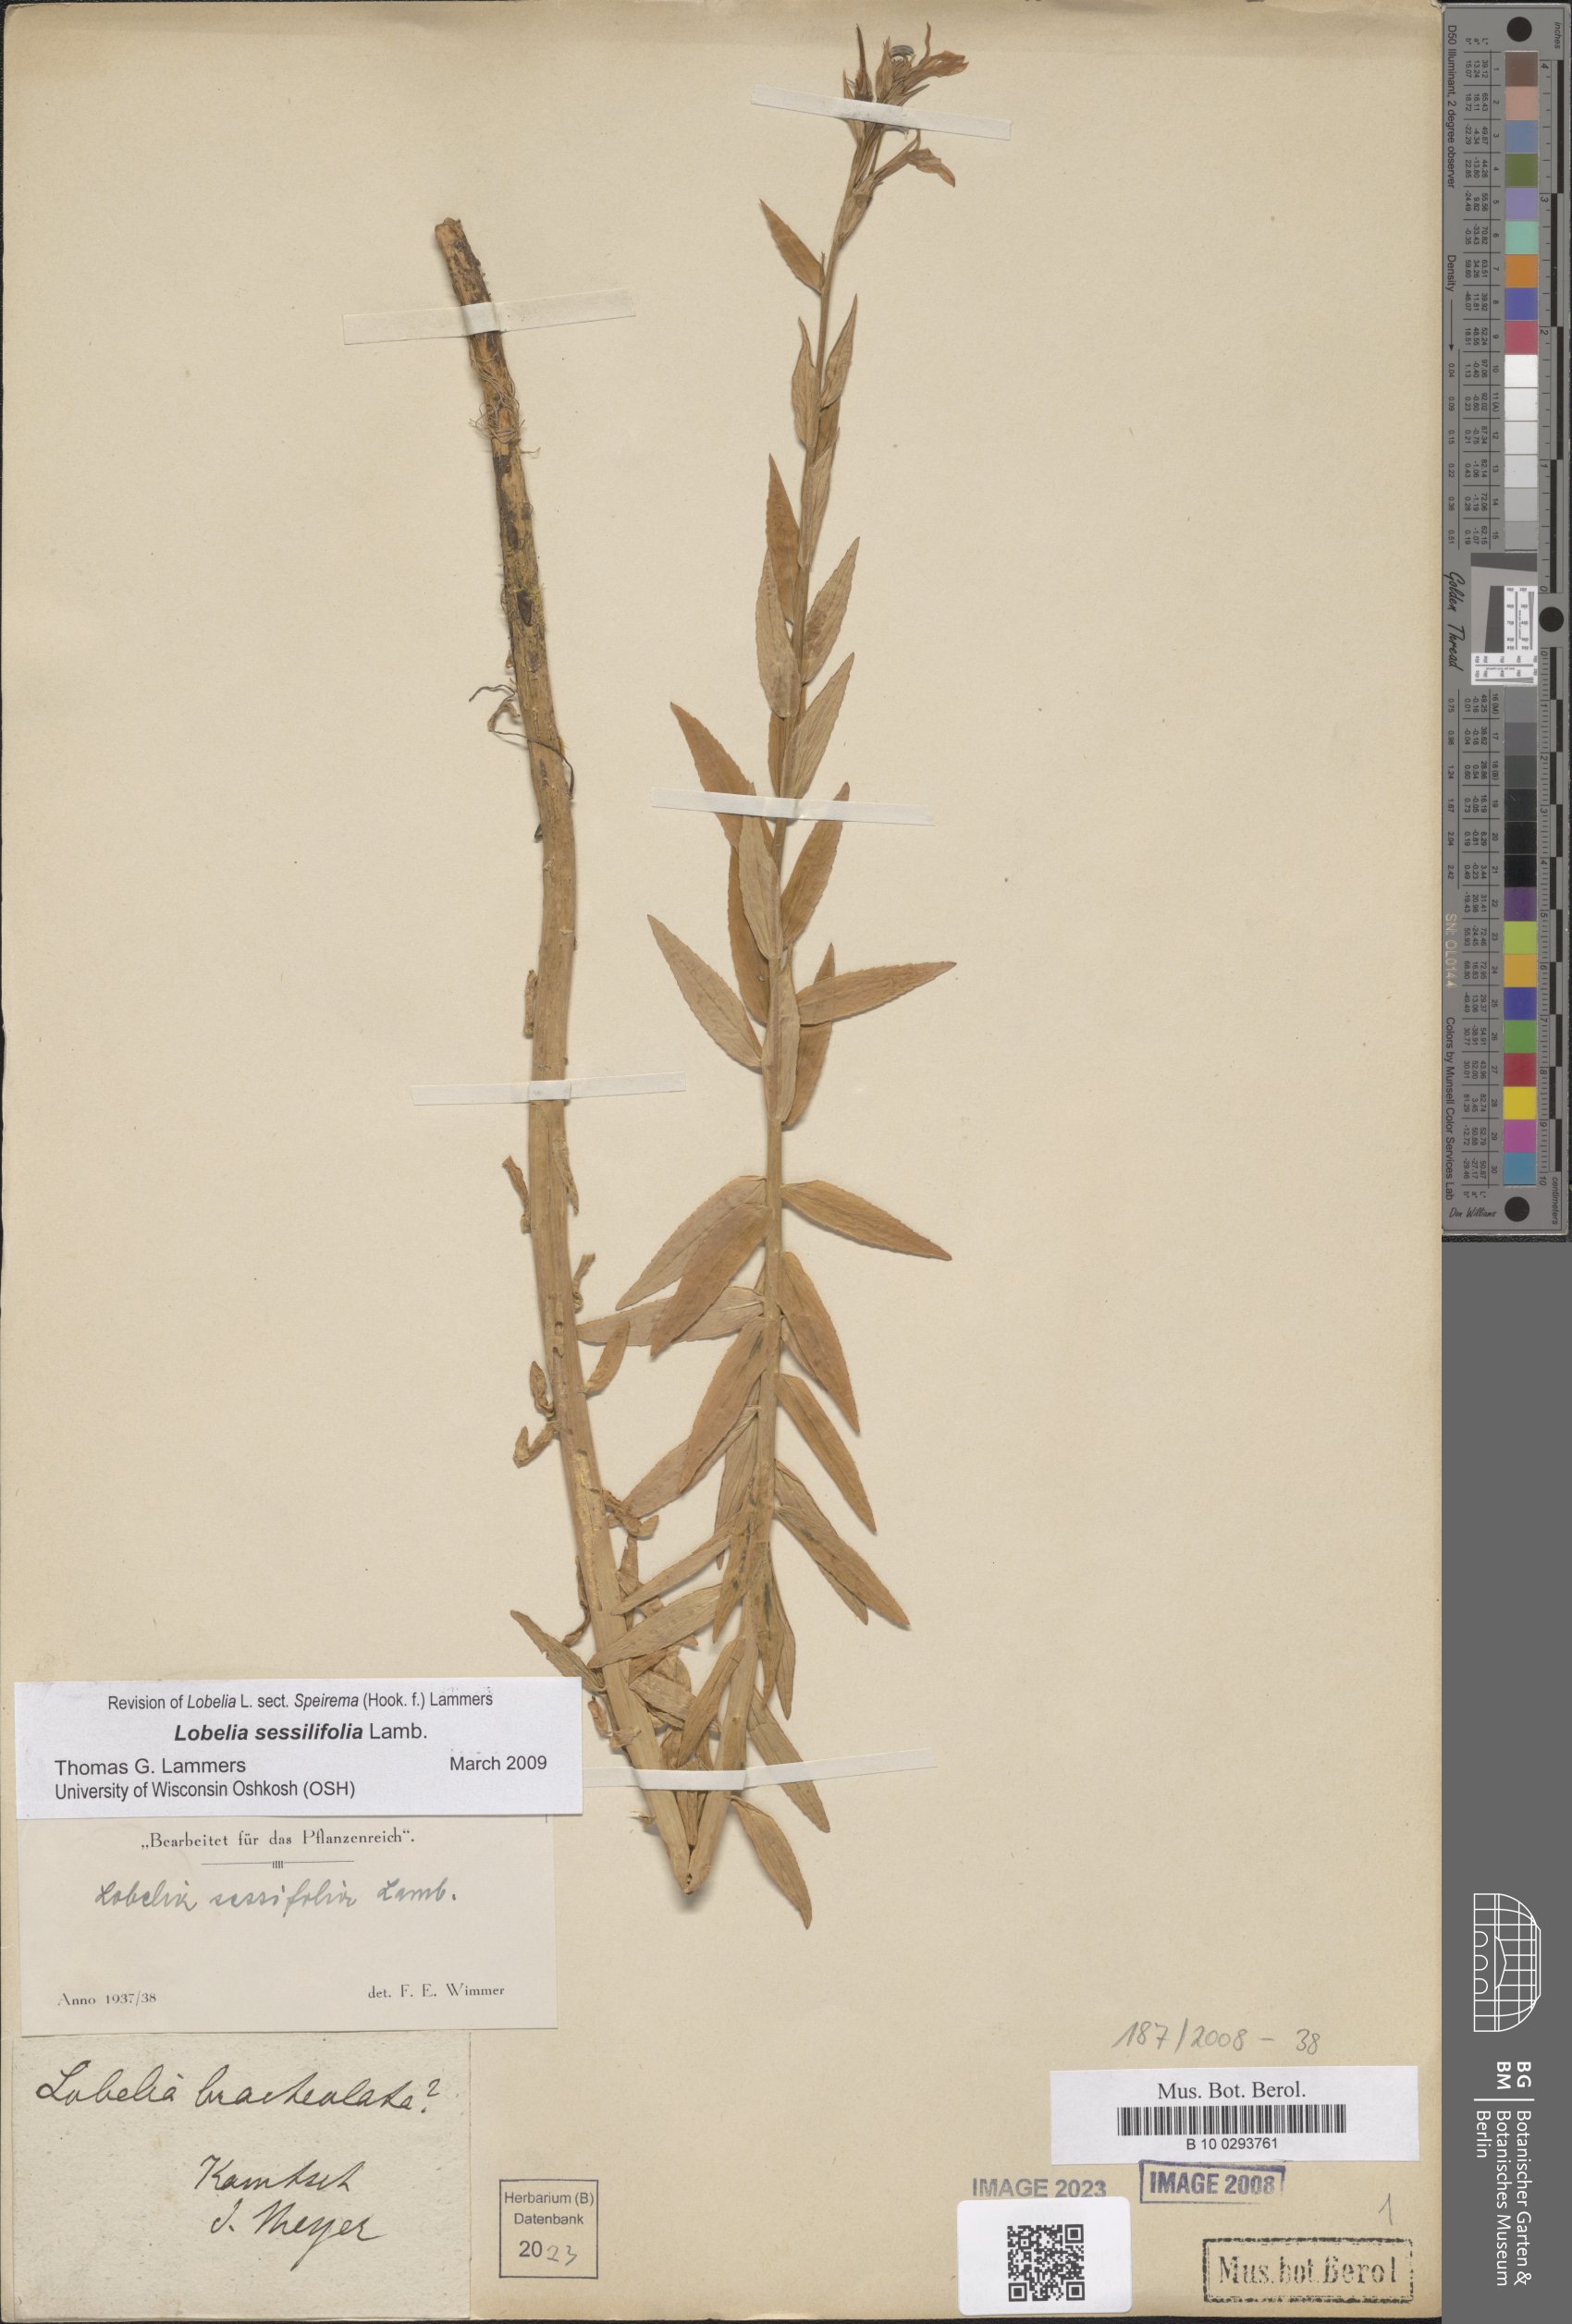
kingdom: Plantae
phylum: Tracheophyta
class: Magnoliopsida
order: Asterales
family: Campanulaceae
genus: Lobelia
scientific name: Lobelia sessilifolia
